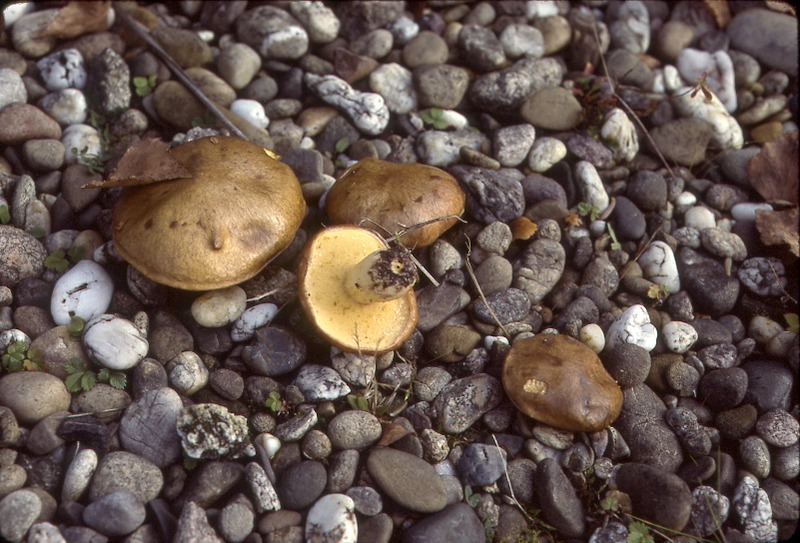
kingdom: Fungi
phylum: Basidiomycota
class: Agaricomycetes
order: Boletales
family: Suillaceae
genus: Suillus
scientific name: Suillus granulatus
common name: Weeping bolete
